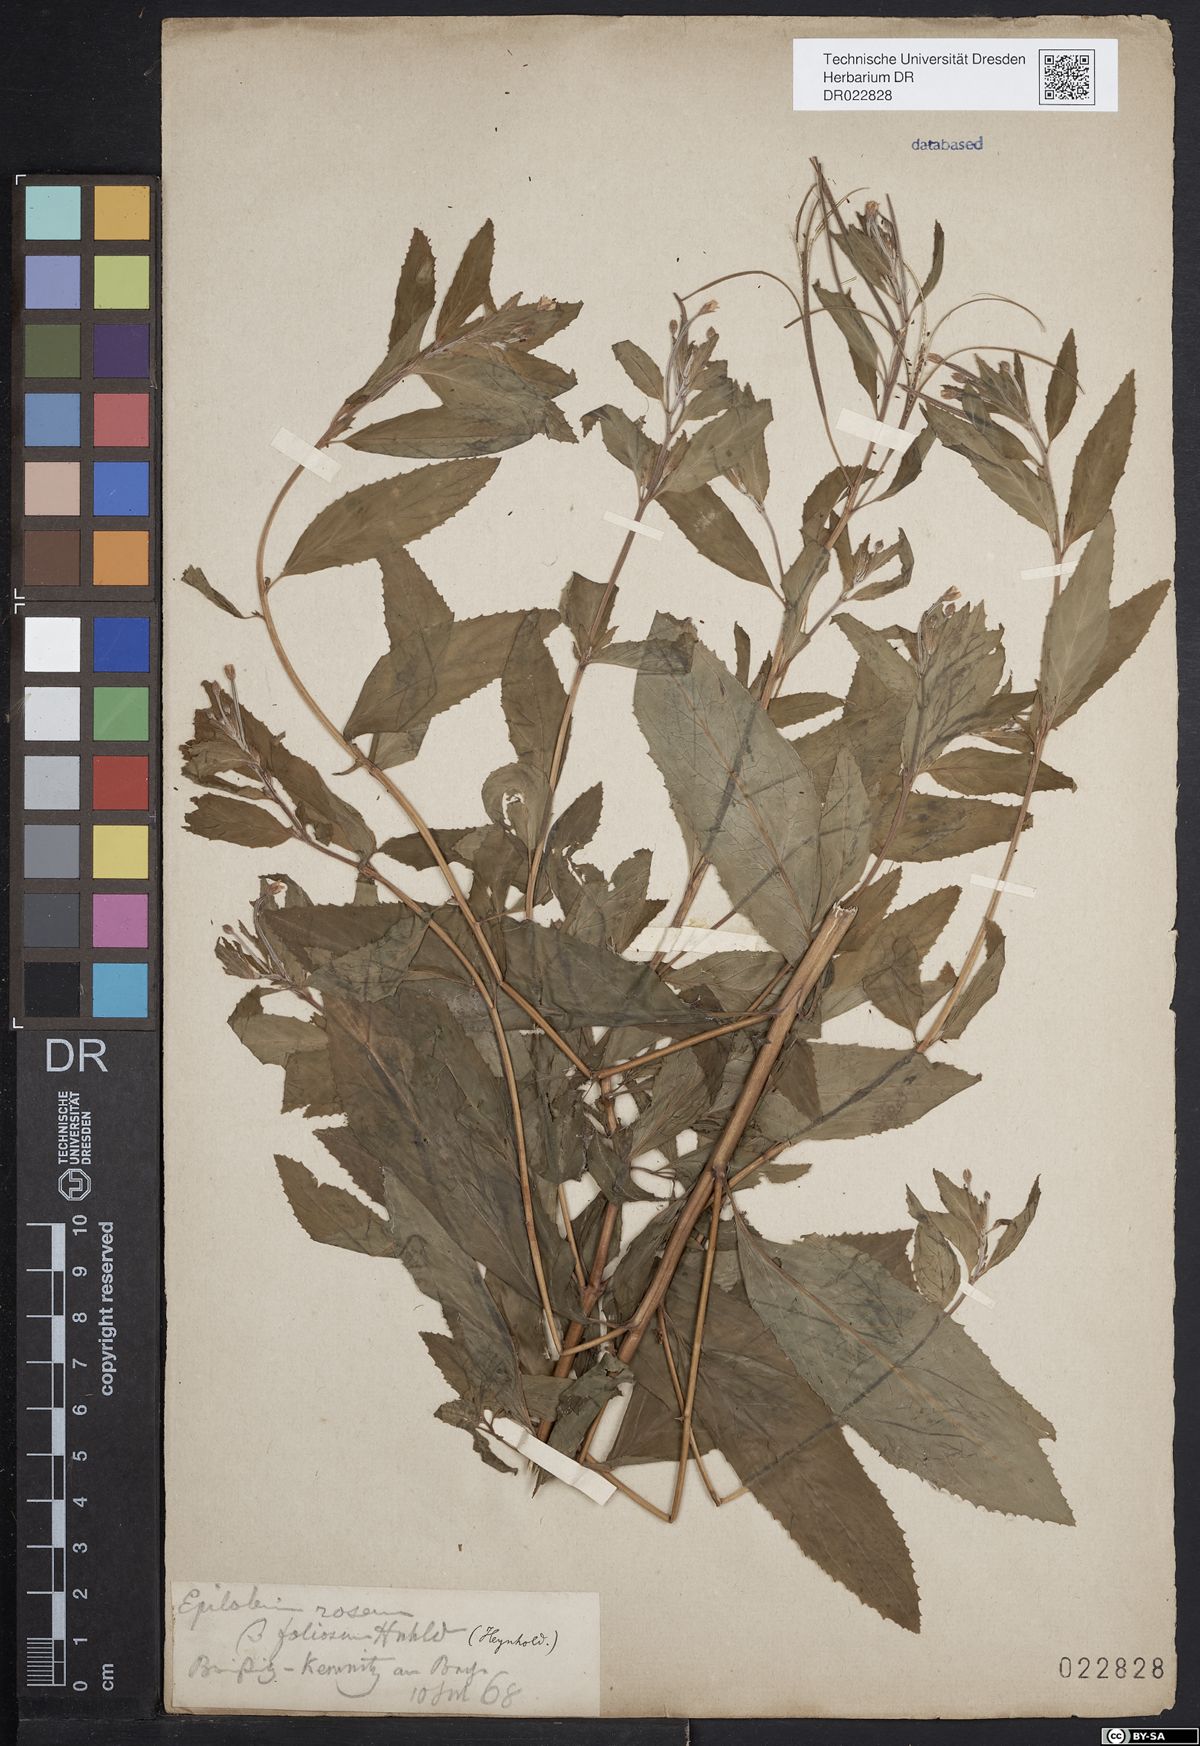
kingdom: Plantae
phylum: Tracheophyta
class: Magnoliopsida
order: Myrtales
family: Onagraceae
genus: Epilobium
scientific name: Epilobium roseum
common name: Pale willowherb
